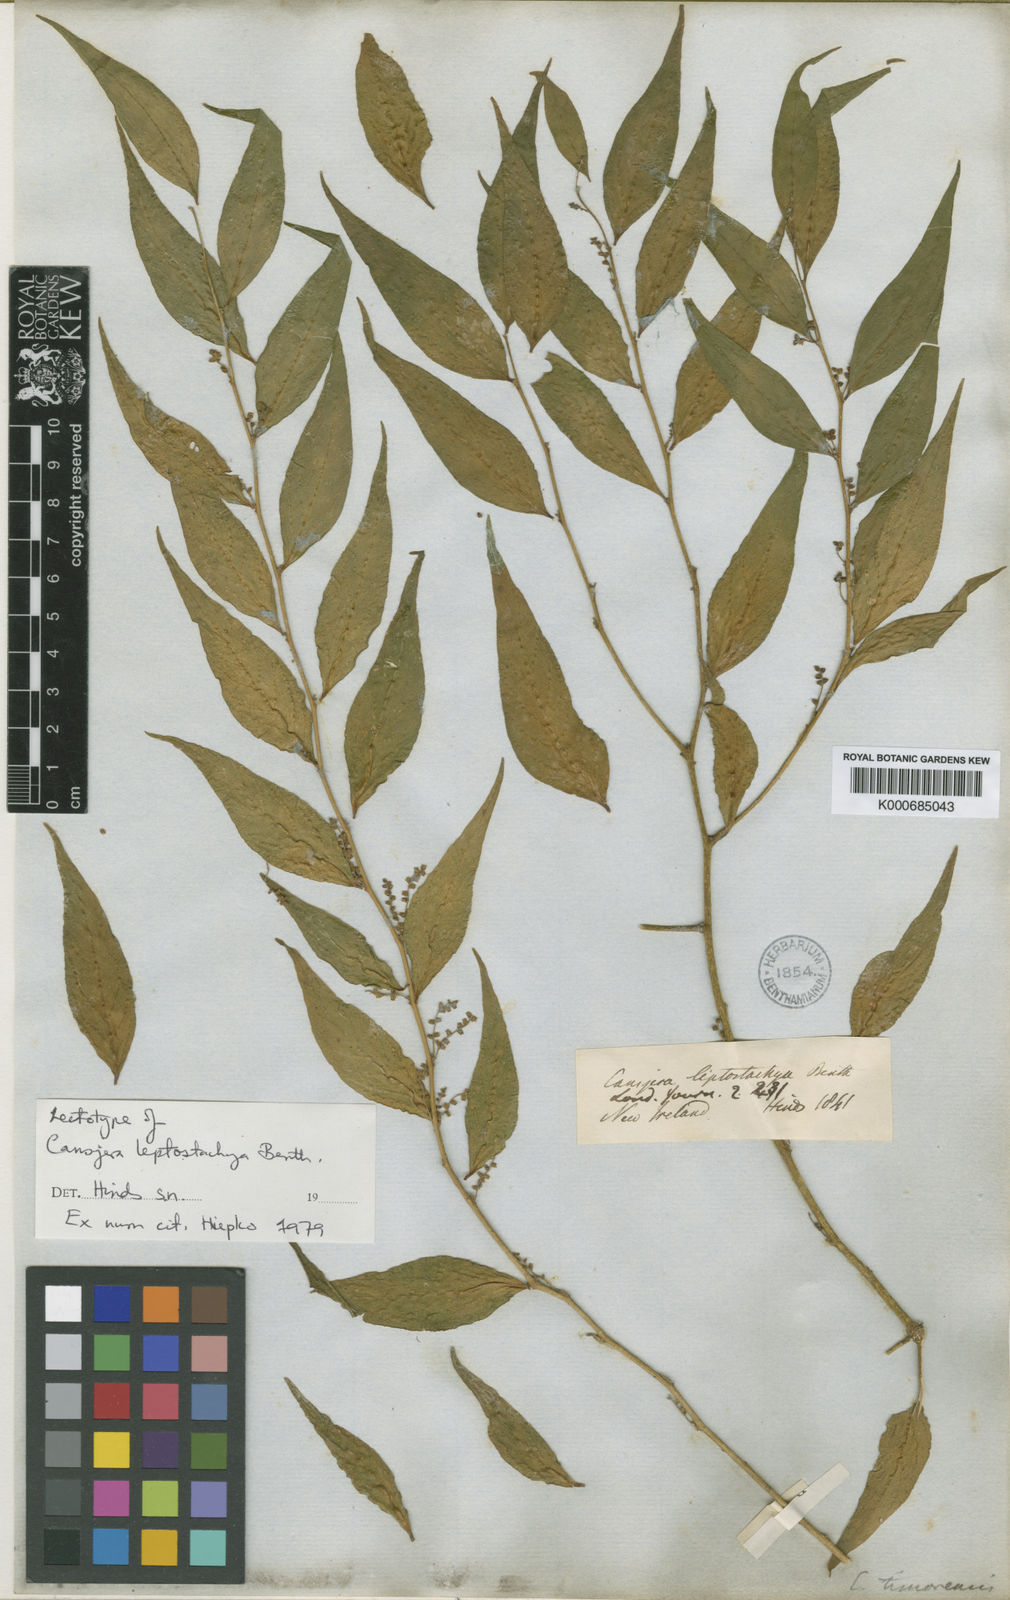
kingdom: Plantae
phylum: Tracheophyta
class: Magnoliopsida
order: Santalales
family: Opiliaceae
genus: Cansjera
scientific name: Cansjera leptostachya
